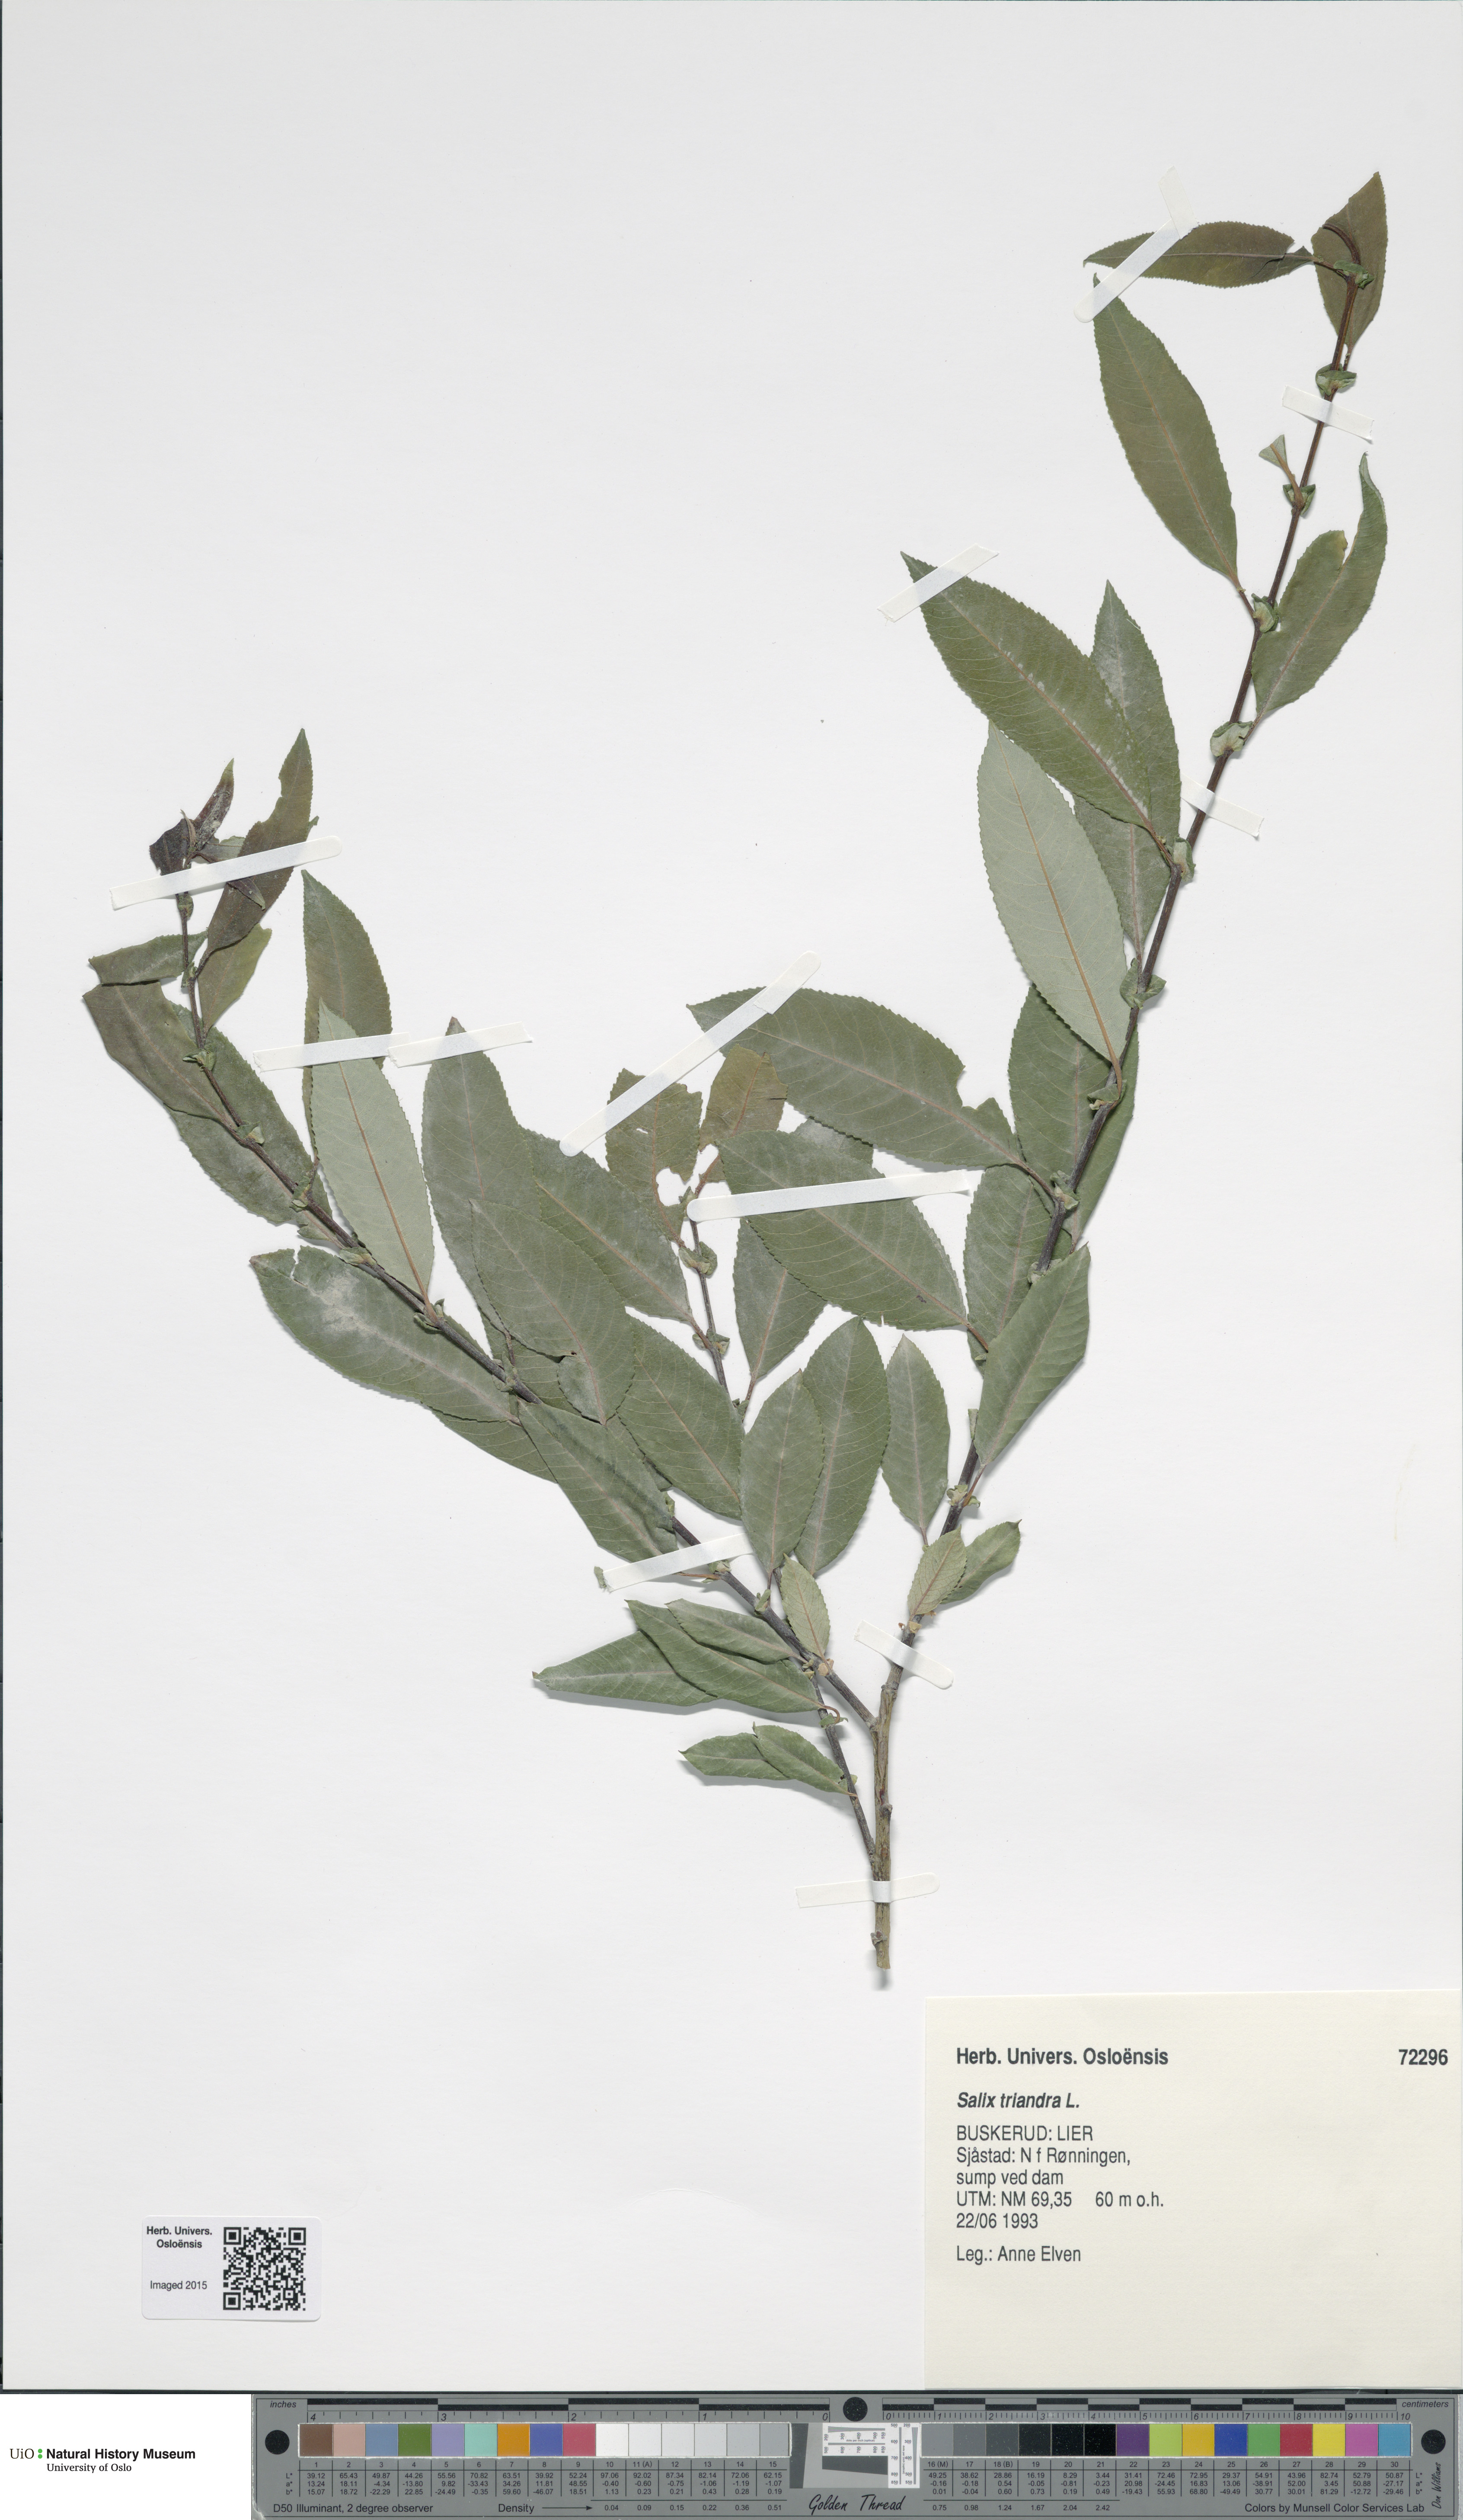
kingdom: Plantae
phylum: Tracheophyta
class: Magnoliopsida
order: Malpighiales
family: Salicaceae
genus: Salix
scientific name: Salix triandra
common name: Almond willow
